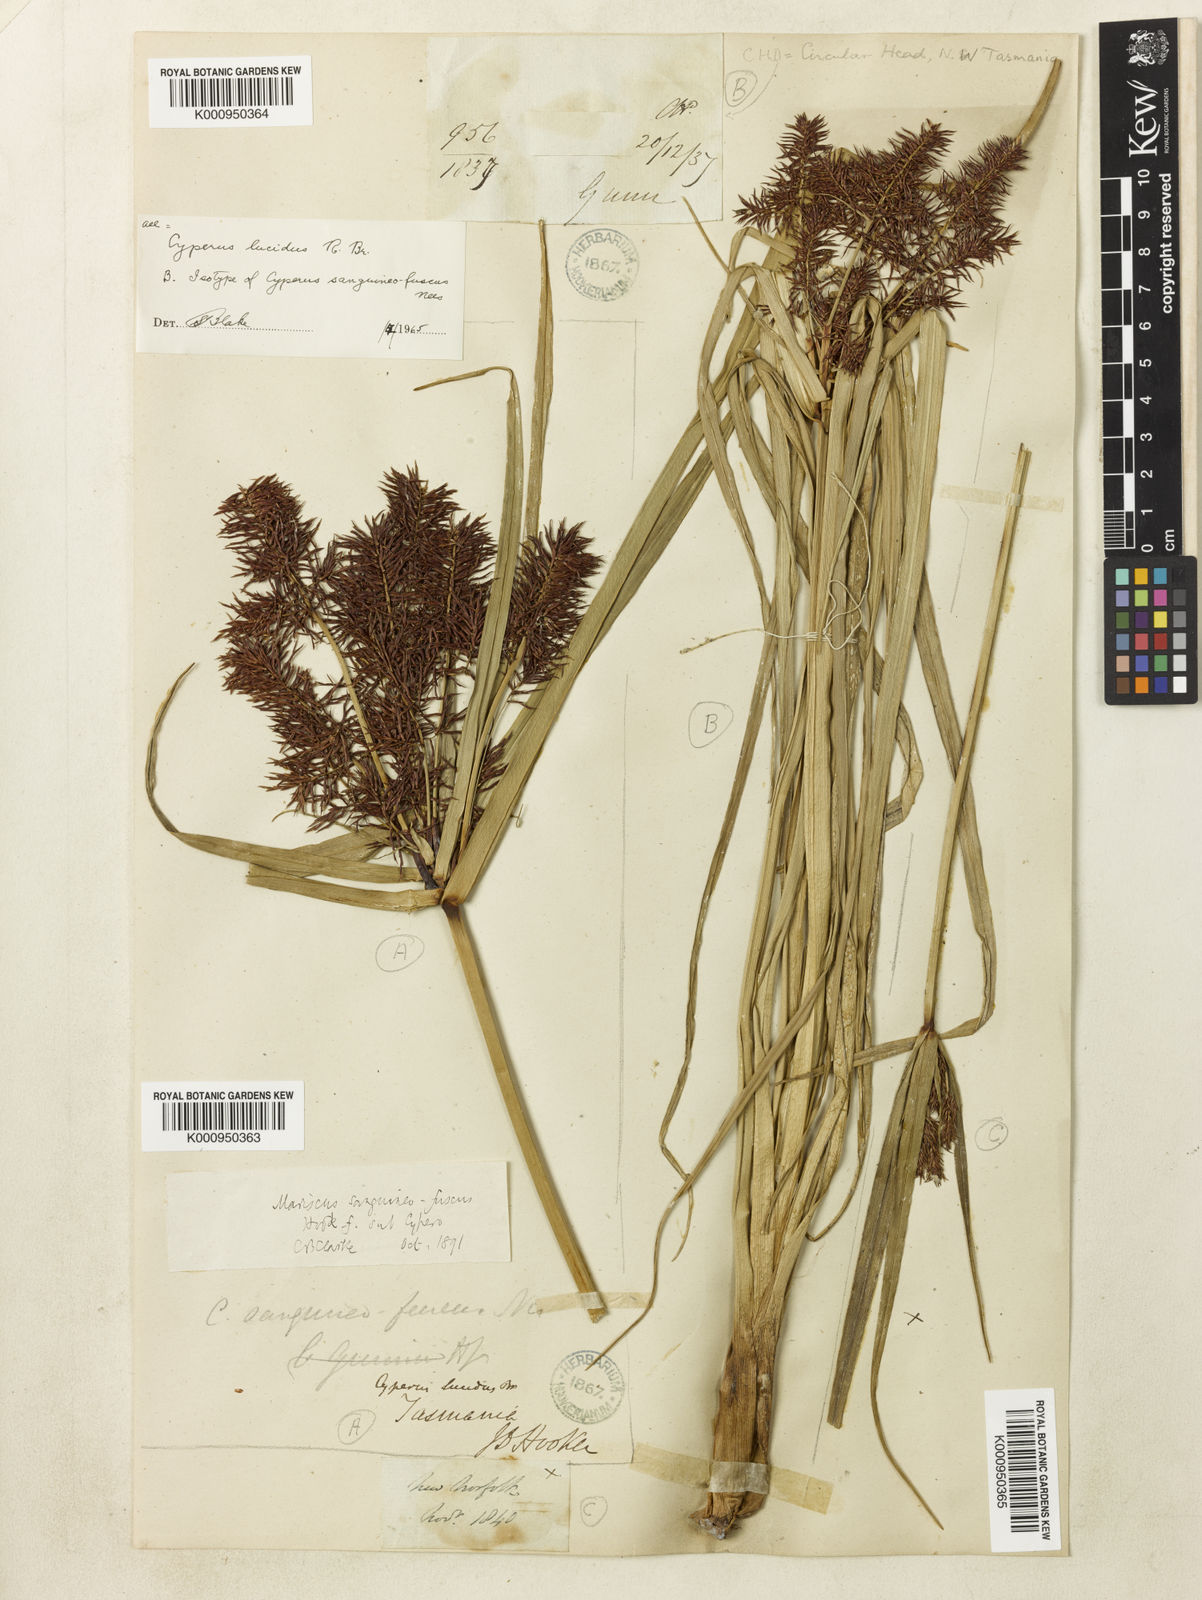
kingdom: Plantae
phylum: Tracheophyta
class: Liliopsida
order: Poales
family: Cyperaceae
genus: Cyperus
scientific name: Cyperus lucidus
